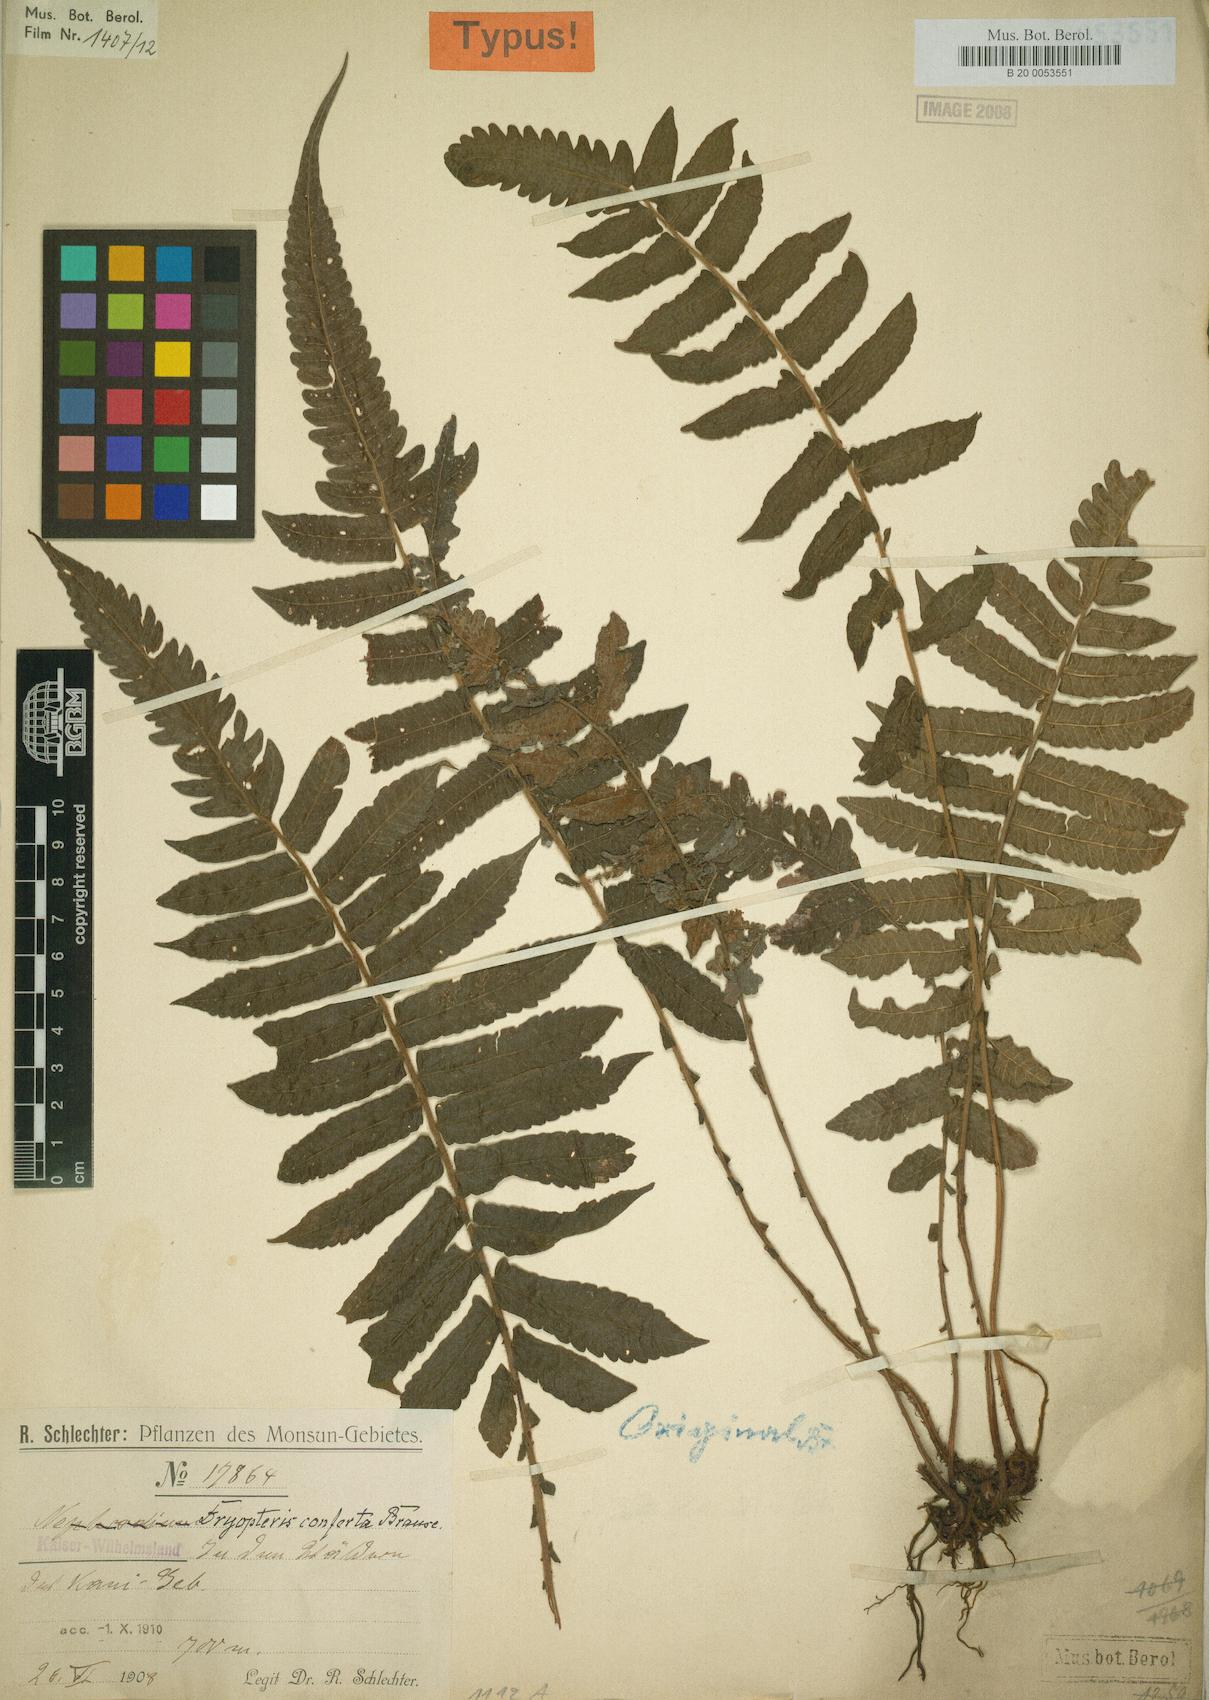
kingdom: Plantae
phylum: Tracheophyta
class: Polypodiopsida
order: Polypodiales
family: Thelypteridaceae
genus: Sphaerostephanos
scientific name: Sphaerostephanos confertus
